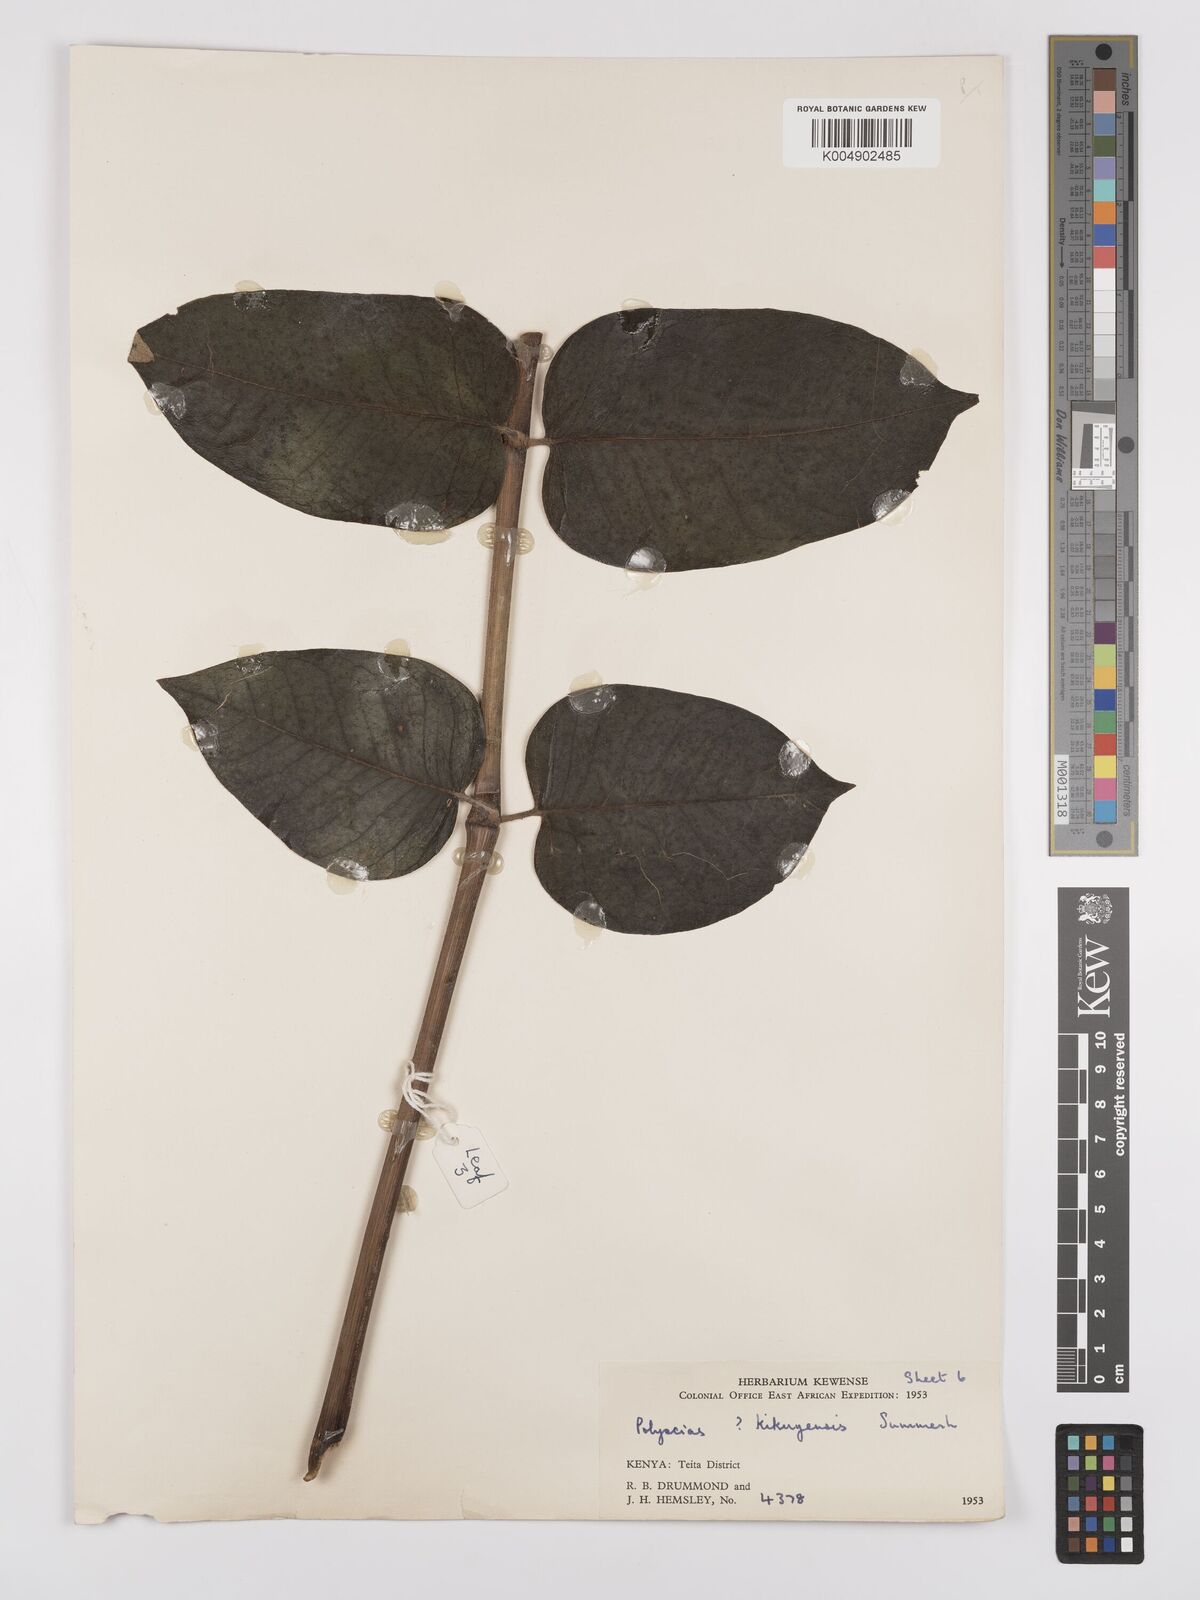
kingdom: Plantae
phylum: Tracheophyta
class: Magnoliopsida
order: Apiales
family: Araliaceae
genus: Polyscias
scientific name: Polyscias fulva
